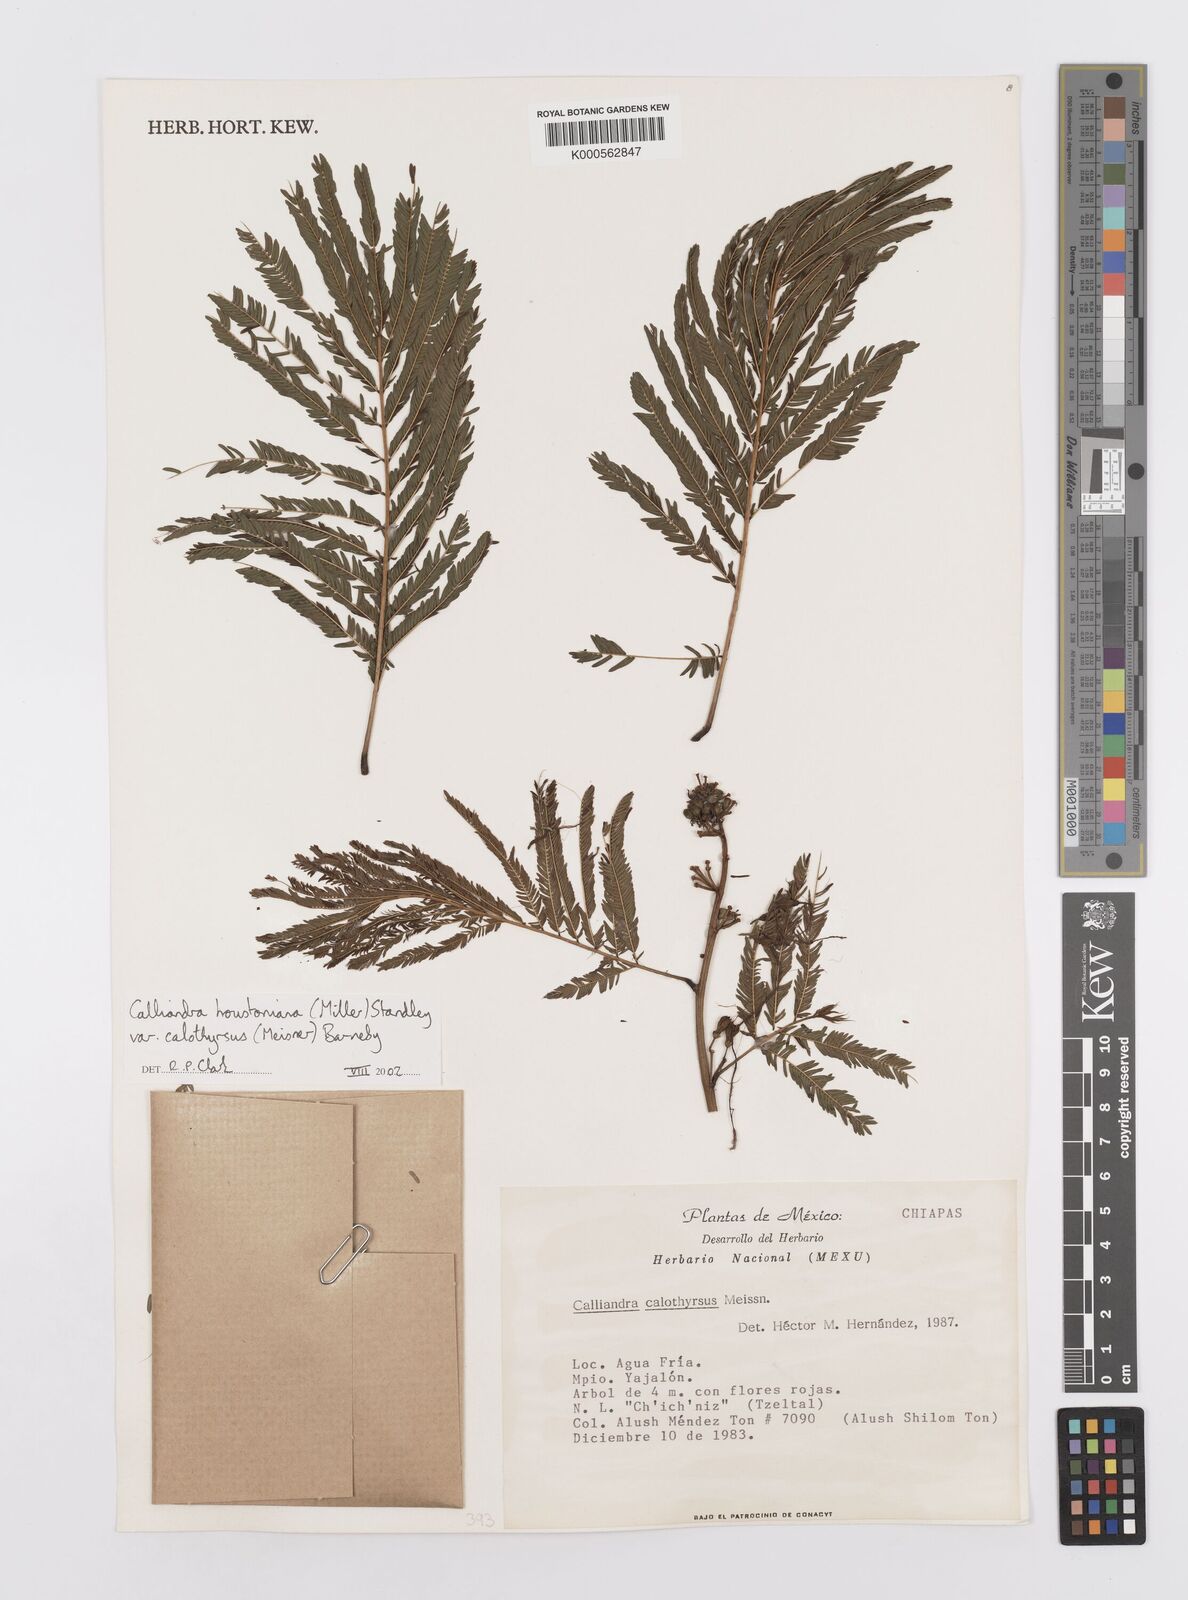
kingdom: Plantae
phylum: Tracheophyta
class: Magnoliopsida
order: Fabales
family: Fabaceae
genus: Calliandra
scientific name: Calliandra houstoniana
